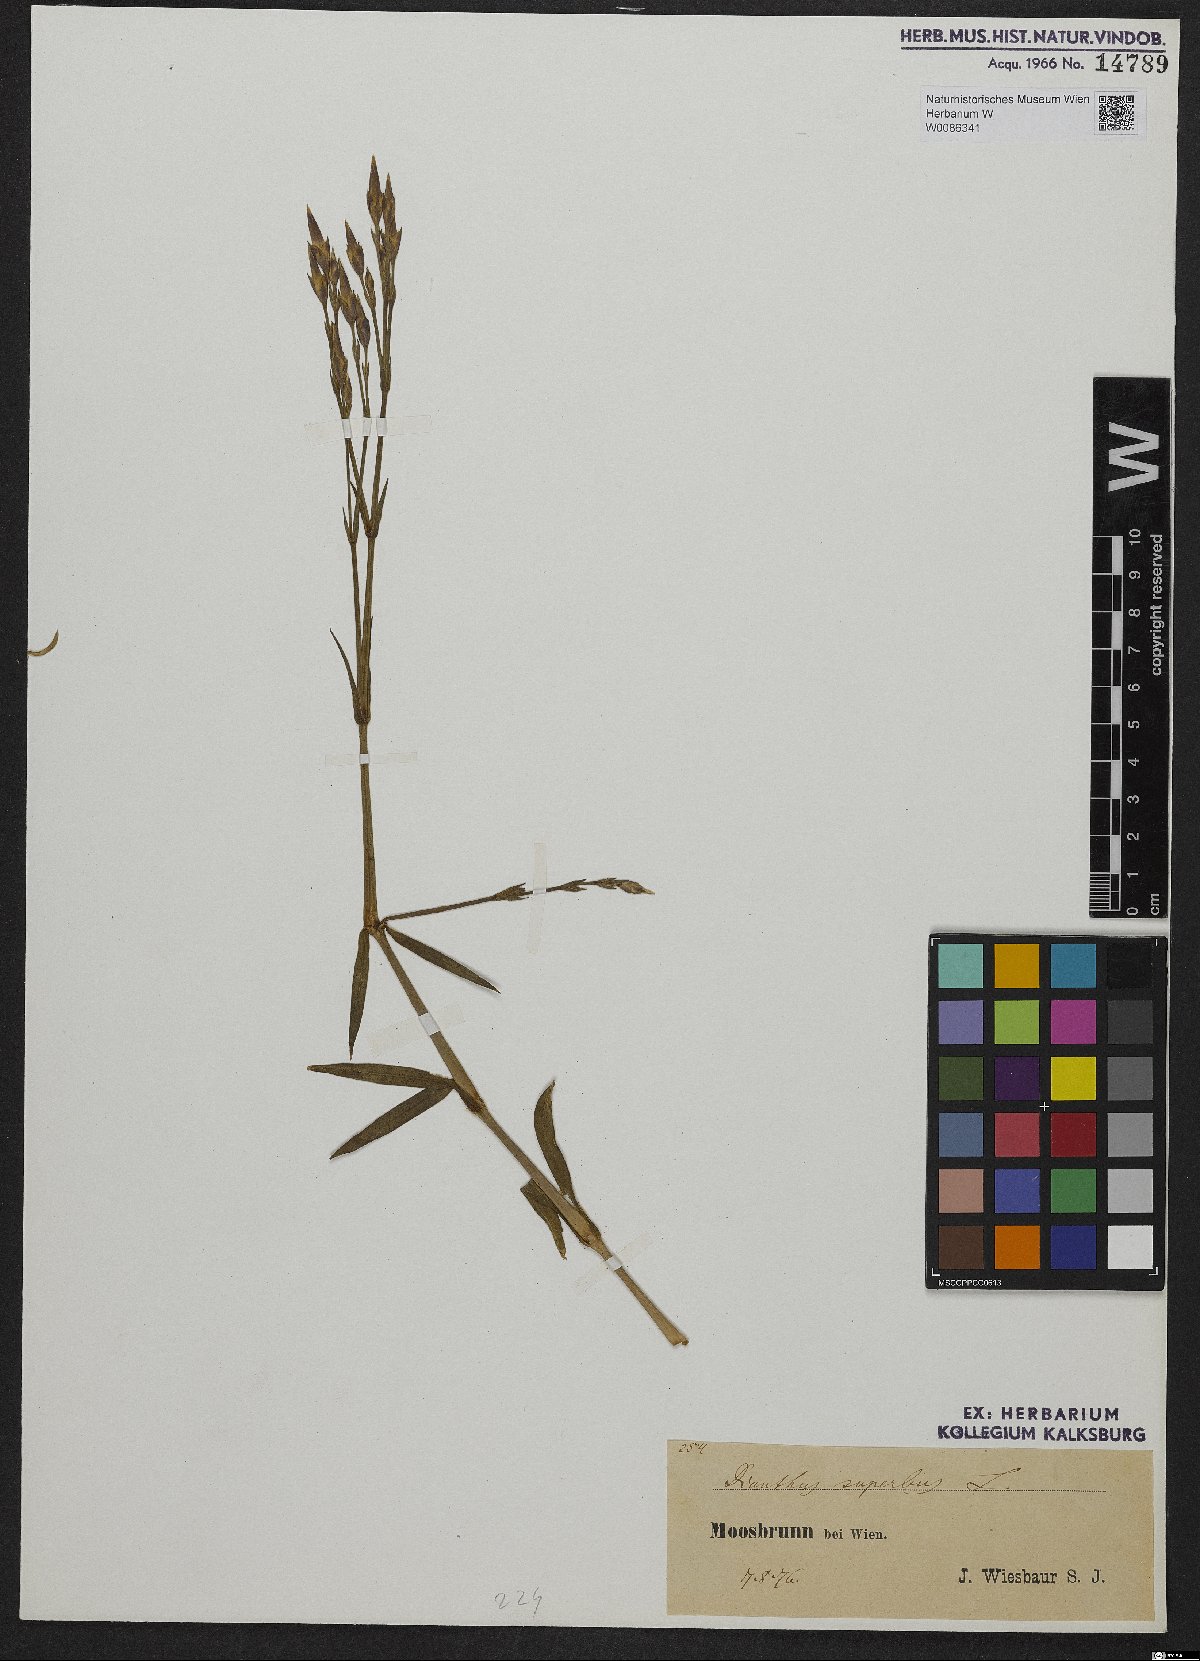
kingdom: Plantae
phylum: Tracheophyta
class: Magnoliopsida
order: Caryophyllales
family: Caryophyllaceae
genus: Dianthus
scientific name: Dianthus superbus
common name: Fringed pink
